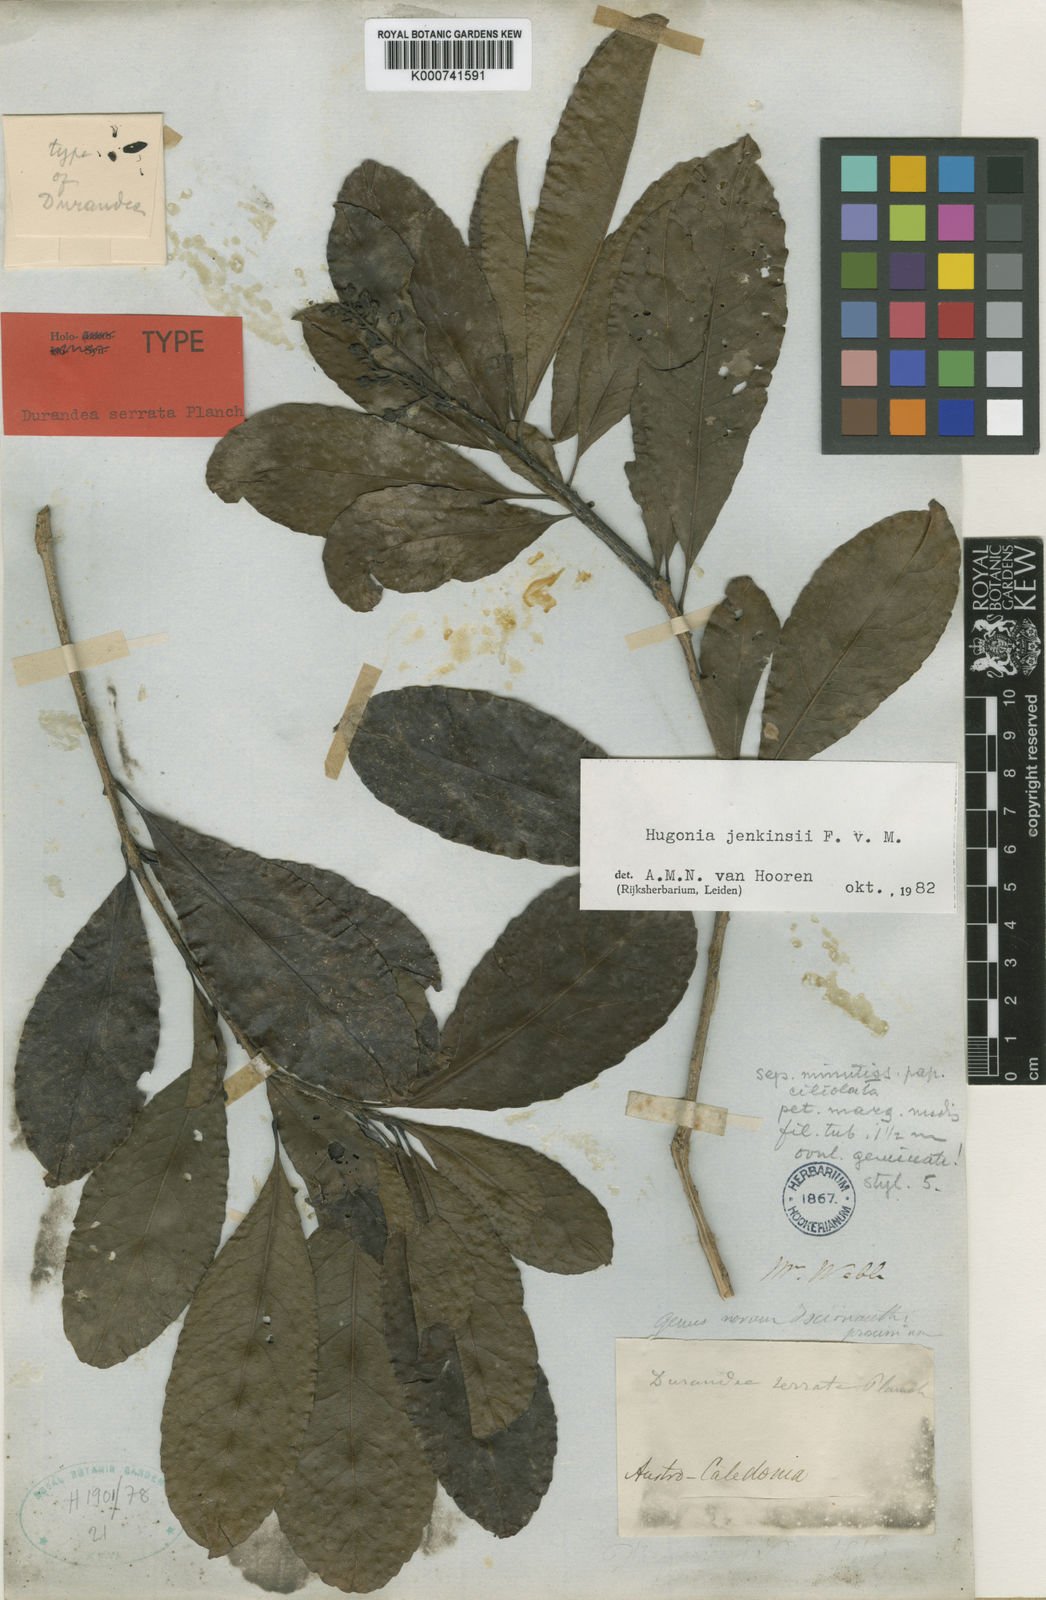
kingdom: Plantae
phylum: Tracheophyta
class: Magnoliopsida
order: Malpighiales
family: Linaceae
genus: Durandea
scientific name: Durandea jenkinsii
